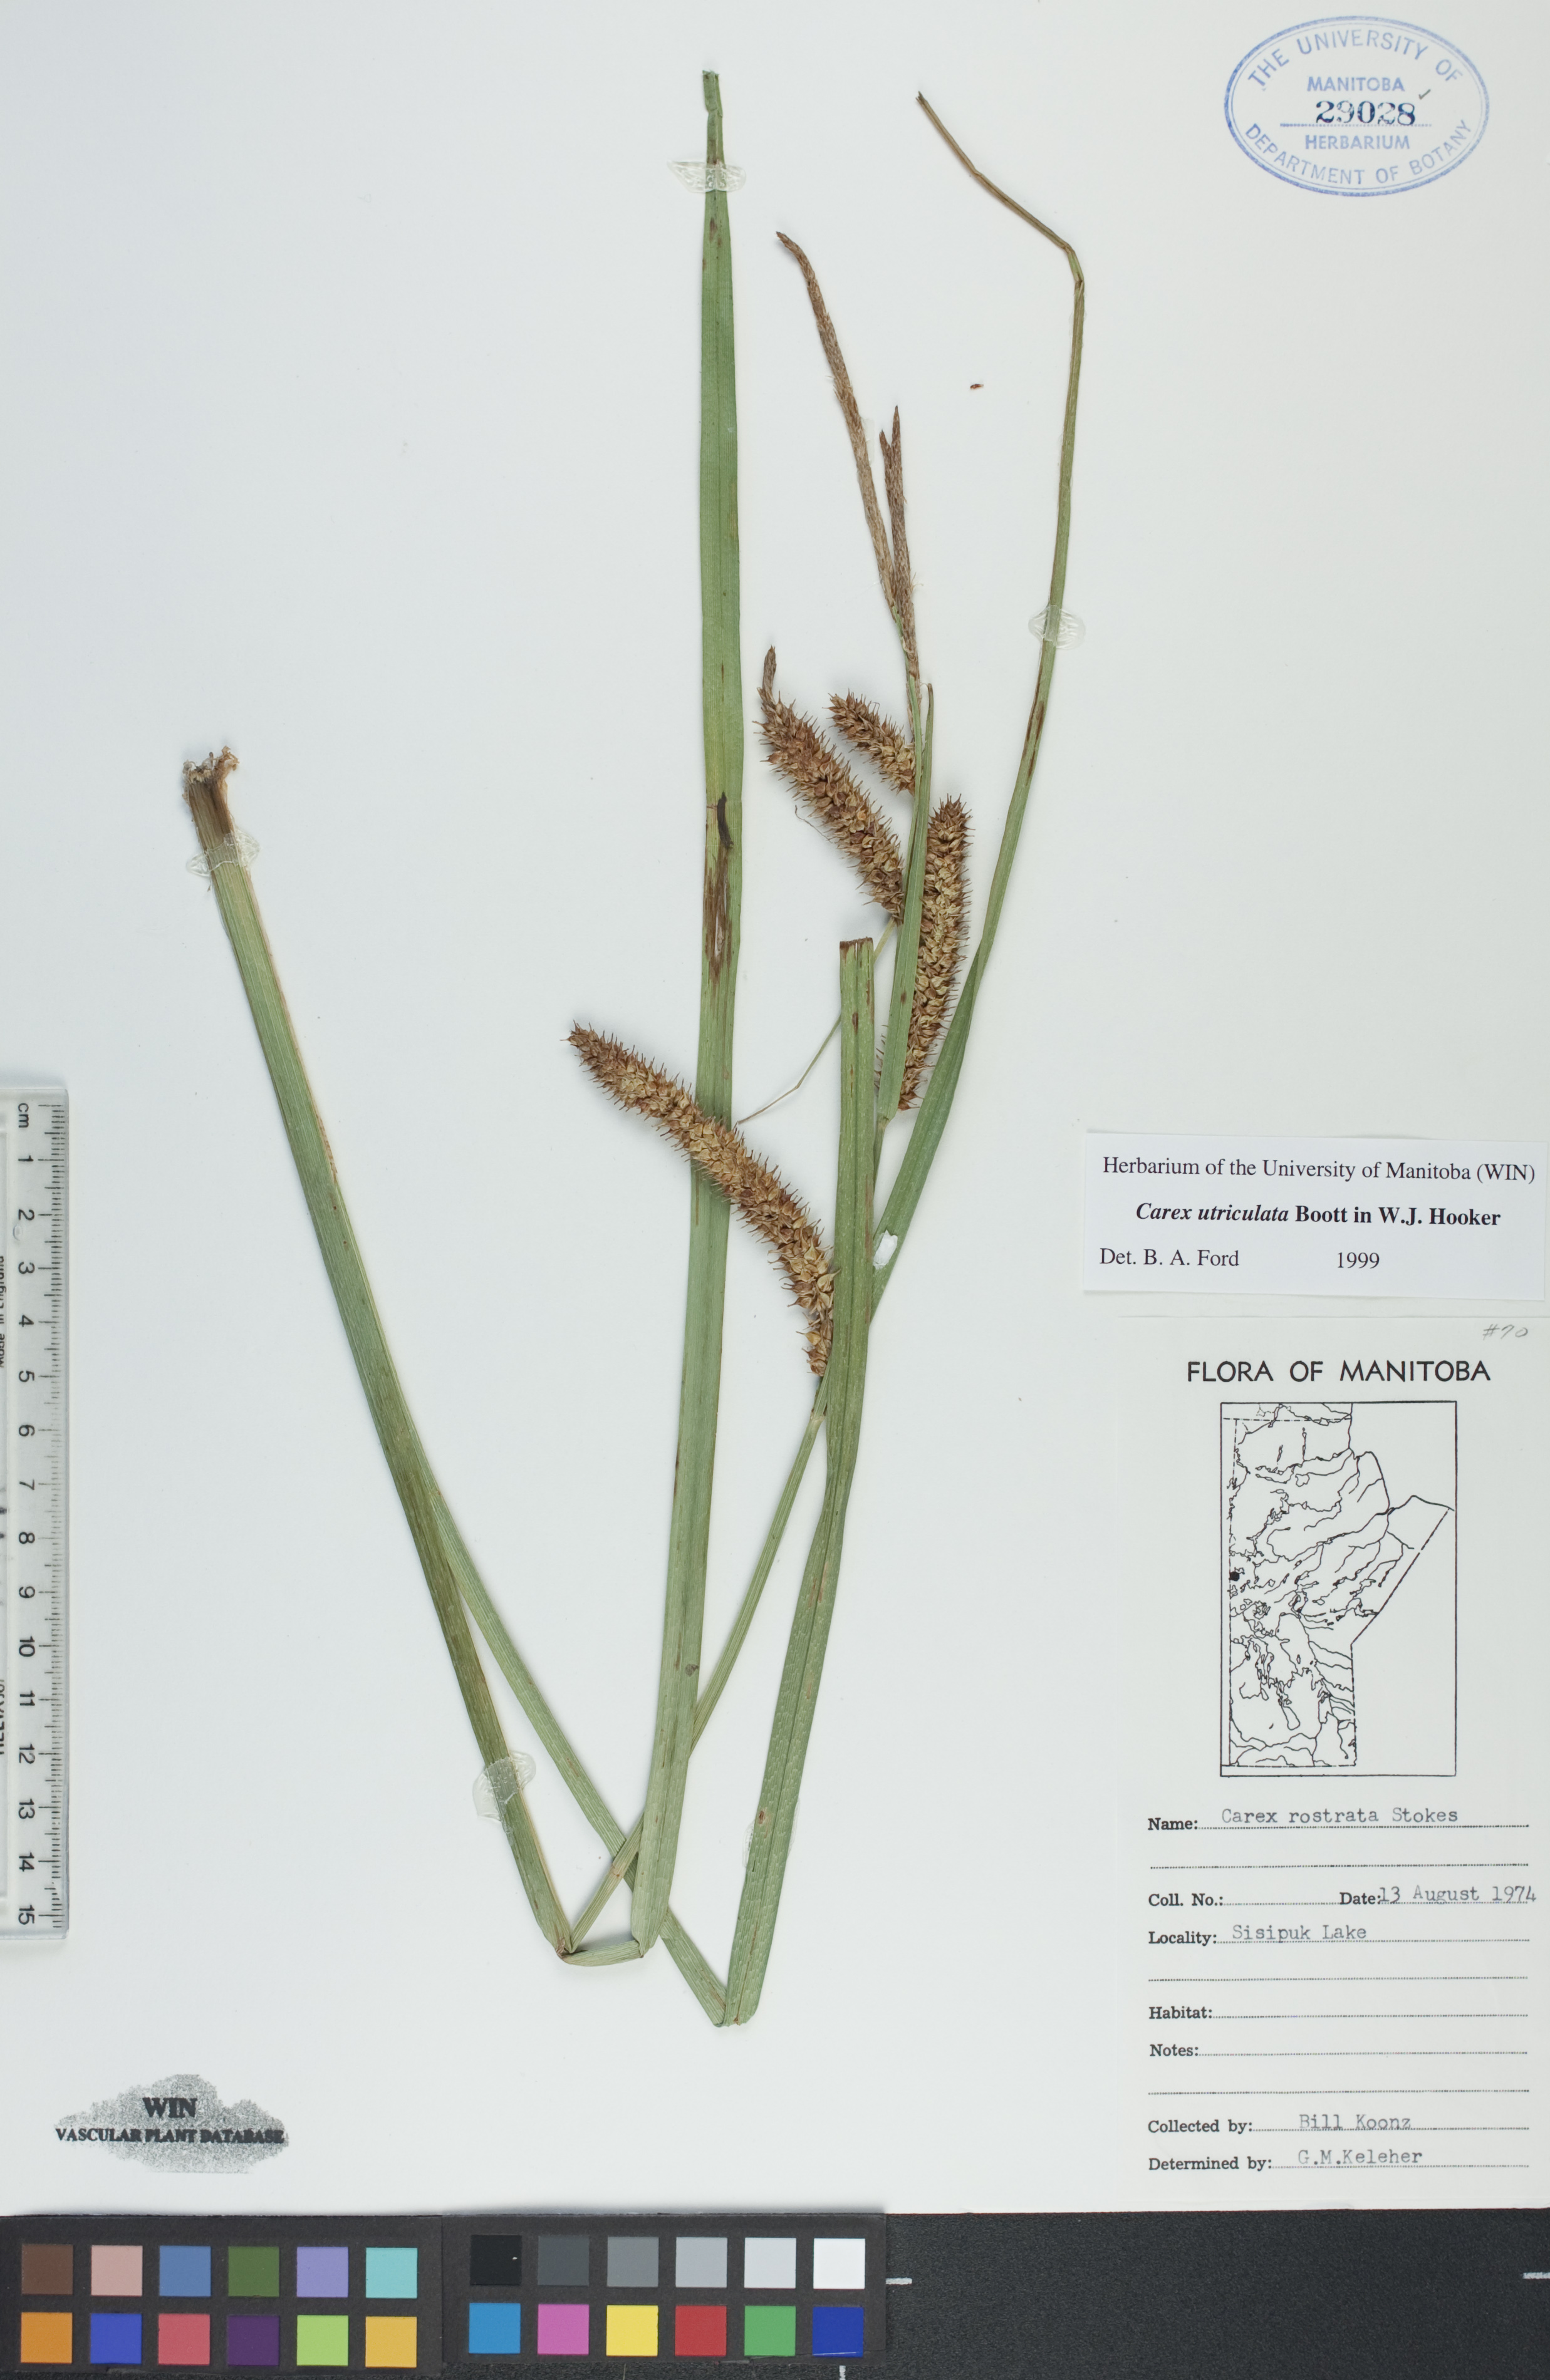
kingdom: Plantae
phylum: Tracheophyta
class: Liliopsida
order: Poales
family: Cyperaceae
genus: Carex
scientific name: Carex utriculata
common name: Beaked sedge
